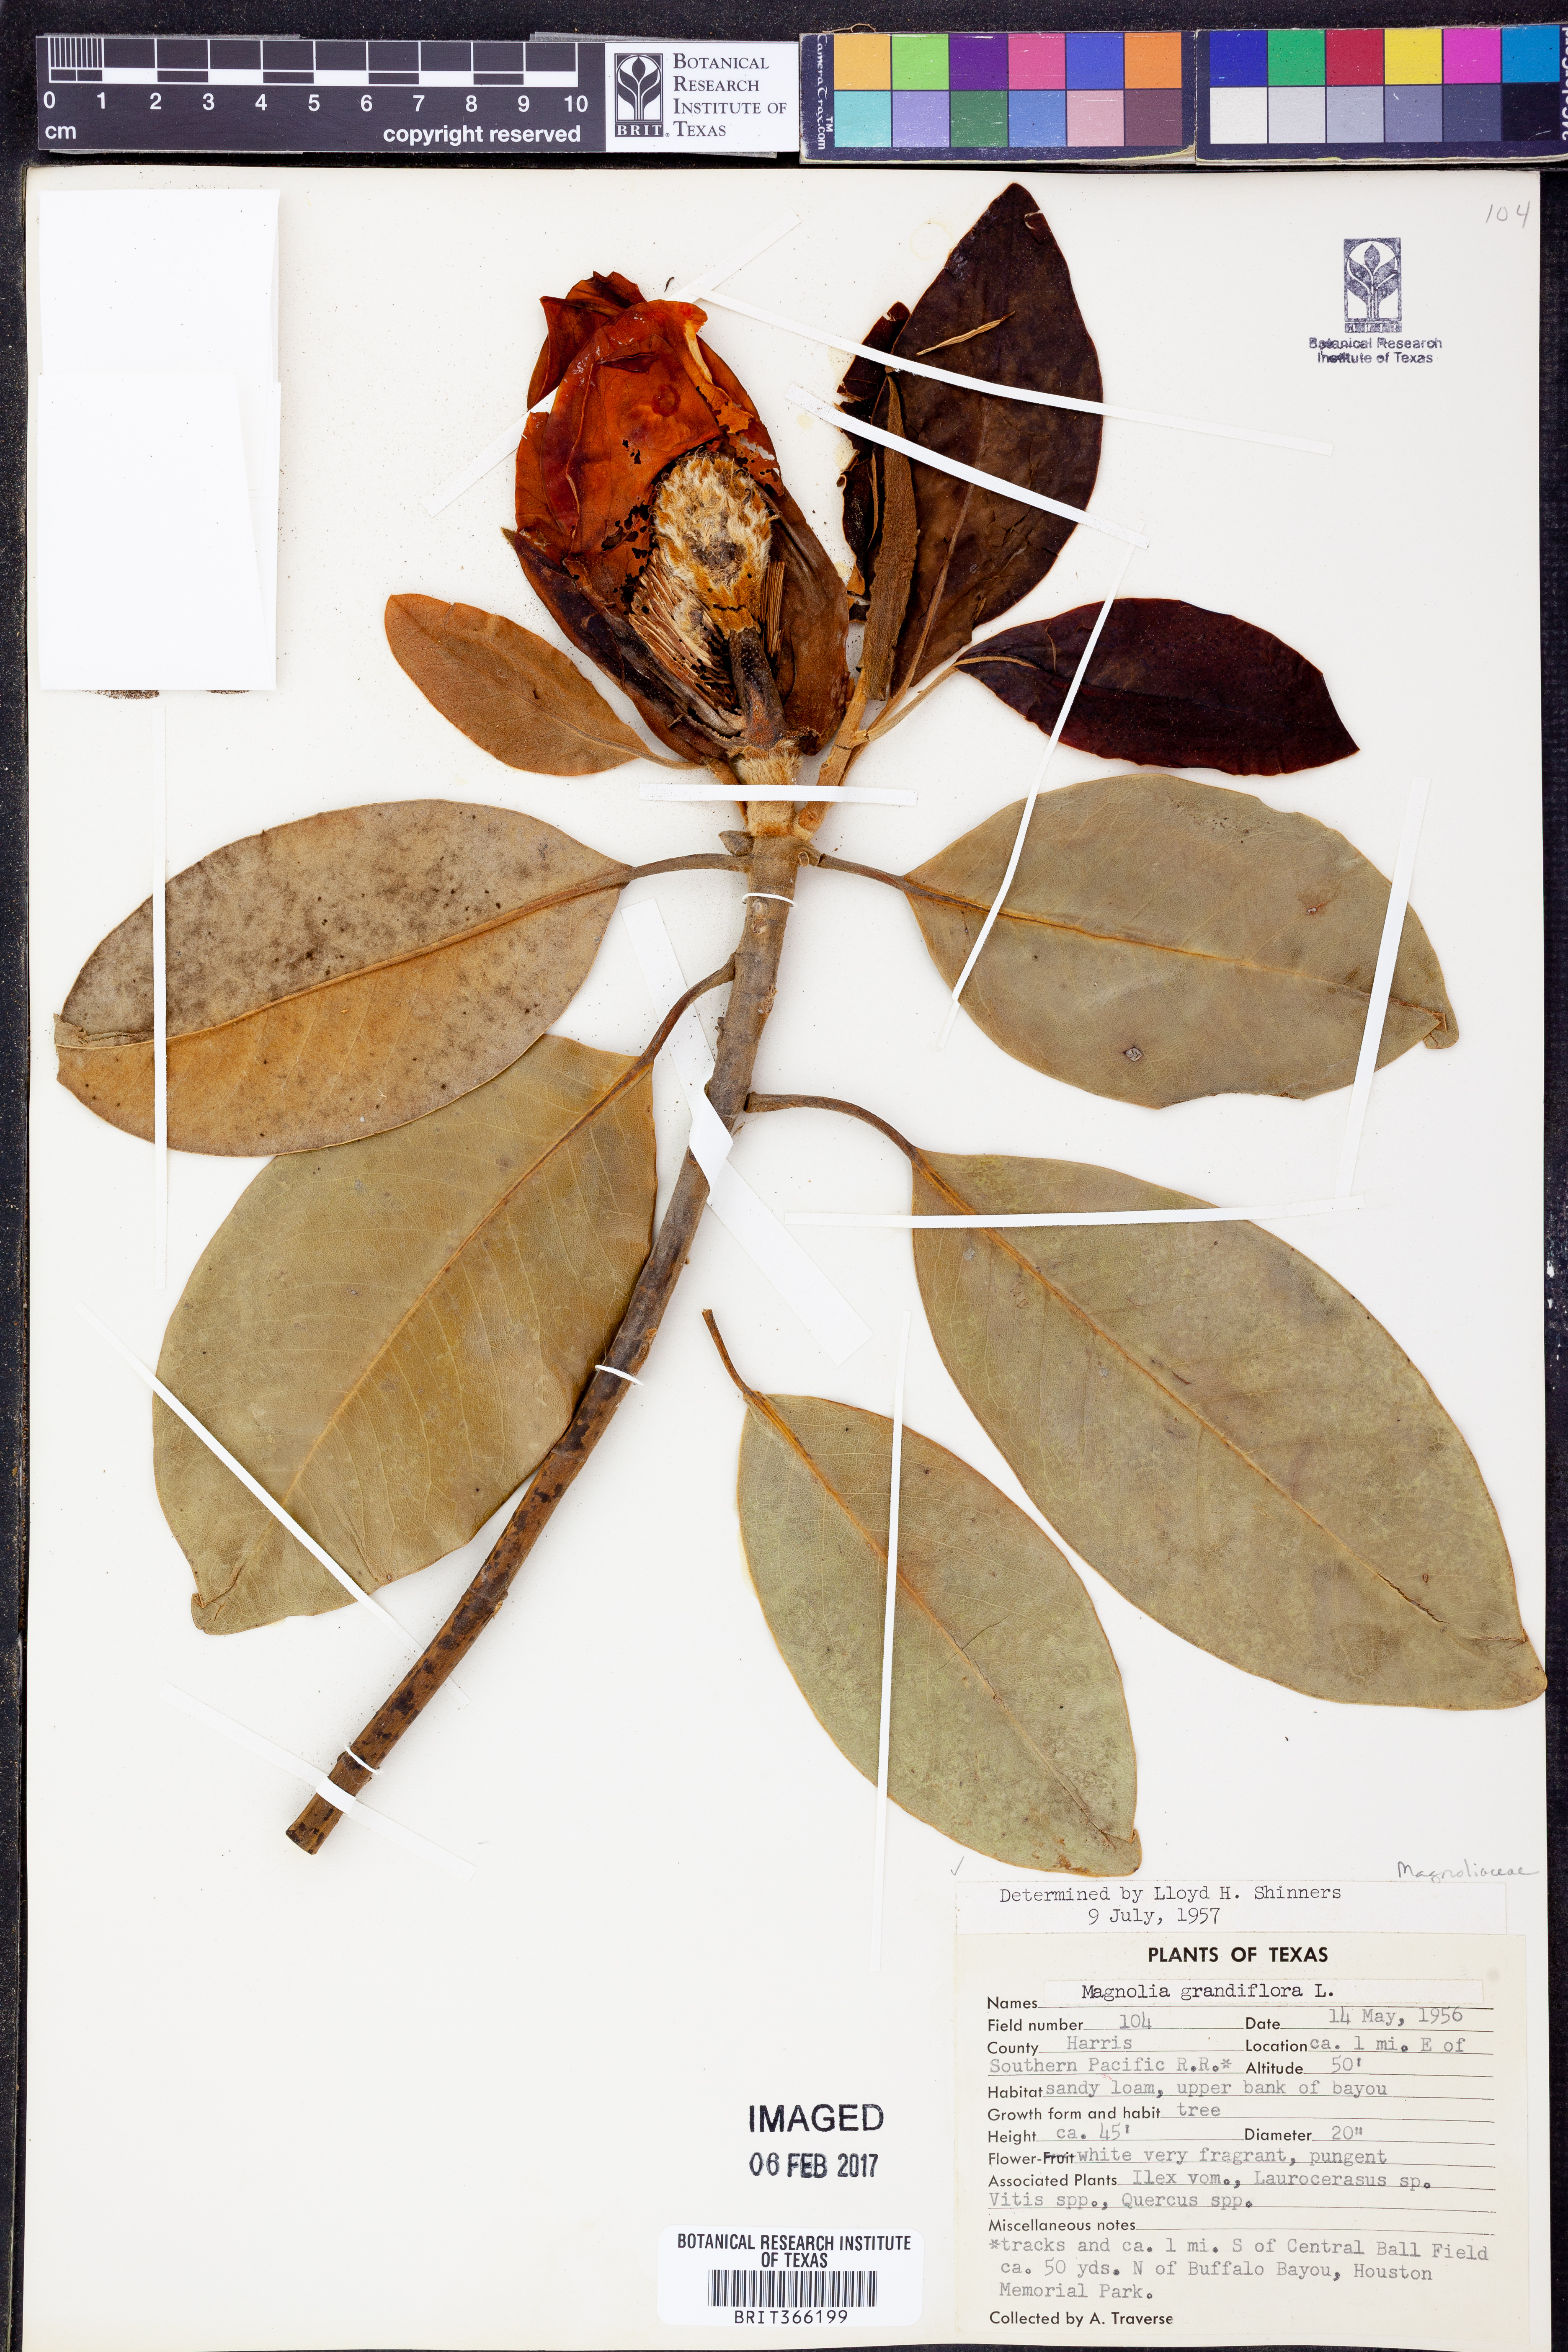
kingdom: Plantae
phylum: Tracheophyta
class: Magnoliopsida
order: Magnoliales
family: Magnoliaceae
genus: Magnolia
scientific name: Magnolia grandiflora
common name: Southern magnolia
